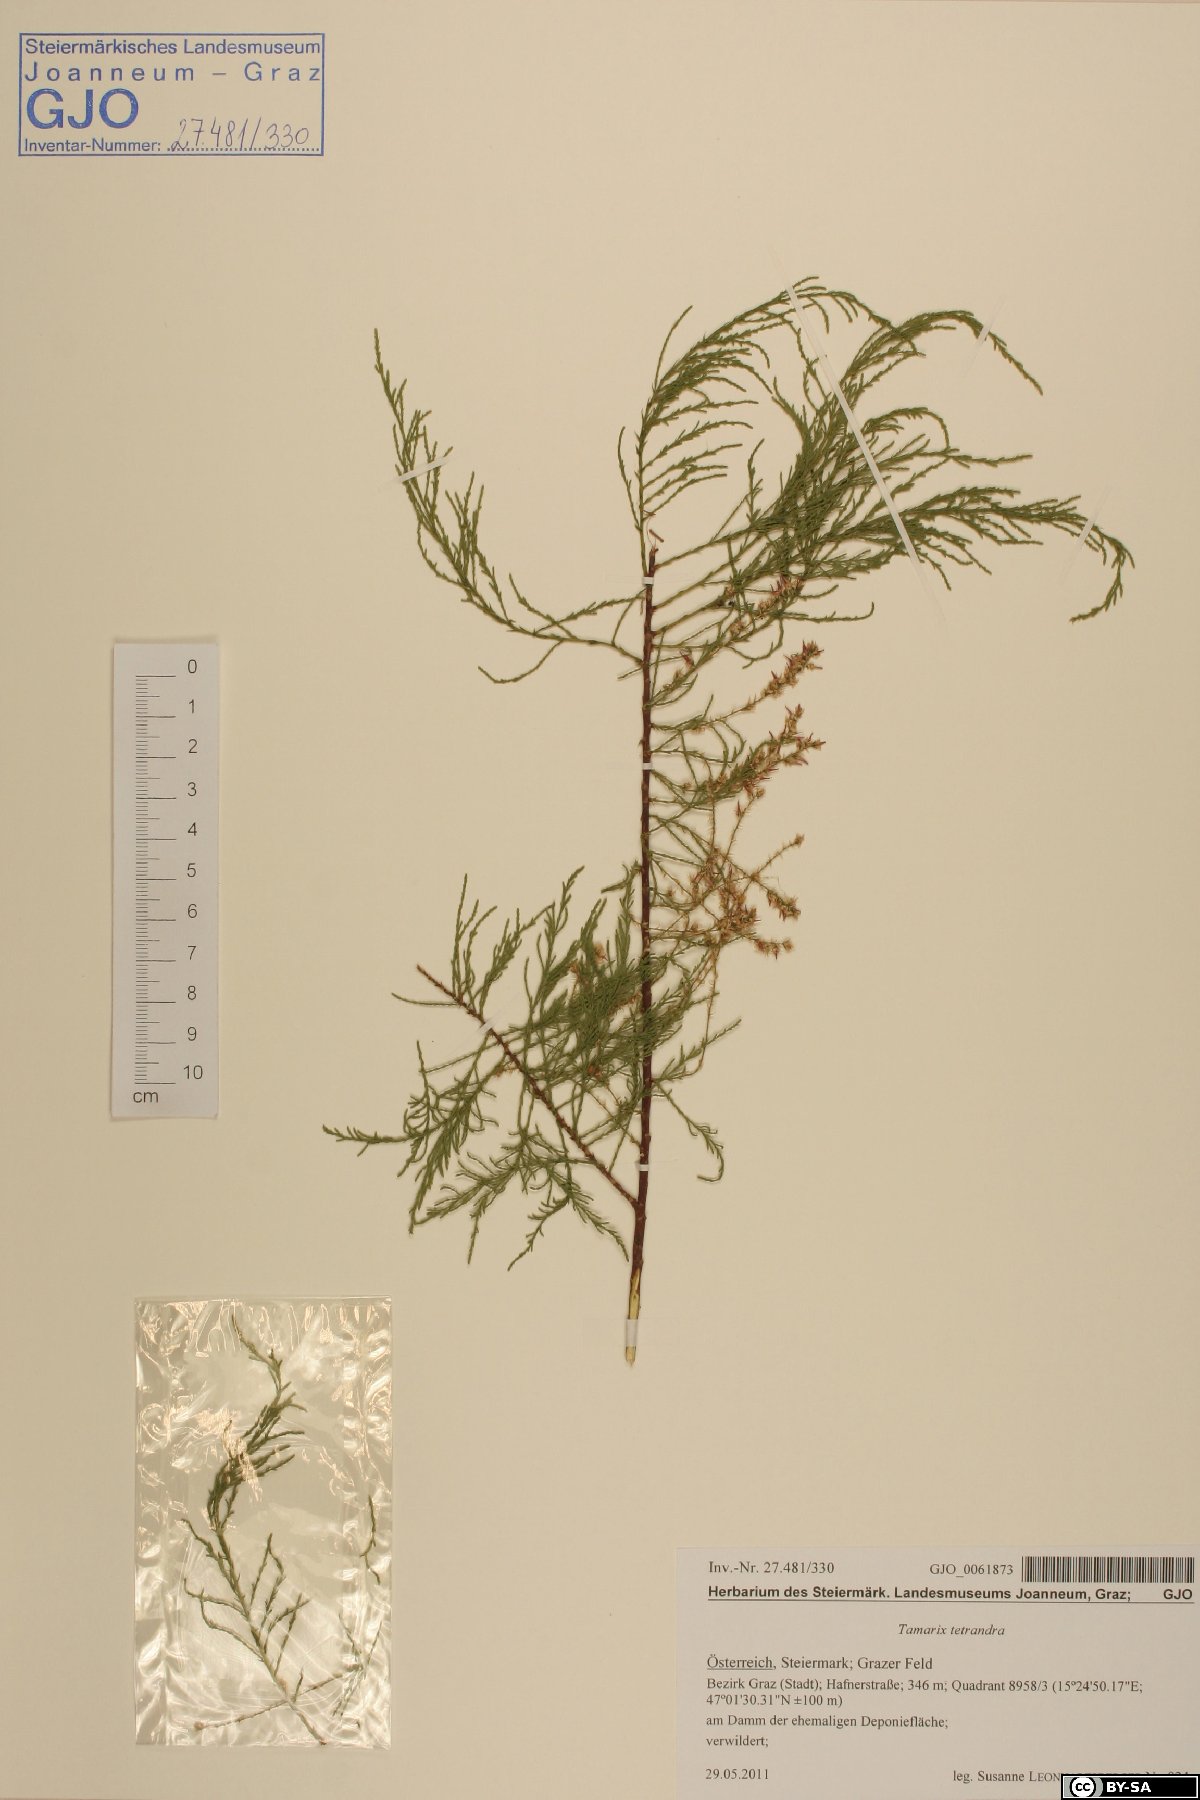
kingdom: Plantae
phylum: Tracheophyta
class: Magnoliopsida
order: Caryophyllales
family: Tamaricaceae
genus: Tamarix
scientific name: Tamarix parviflora
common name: Smallflower tamarisk
